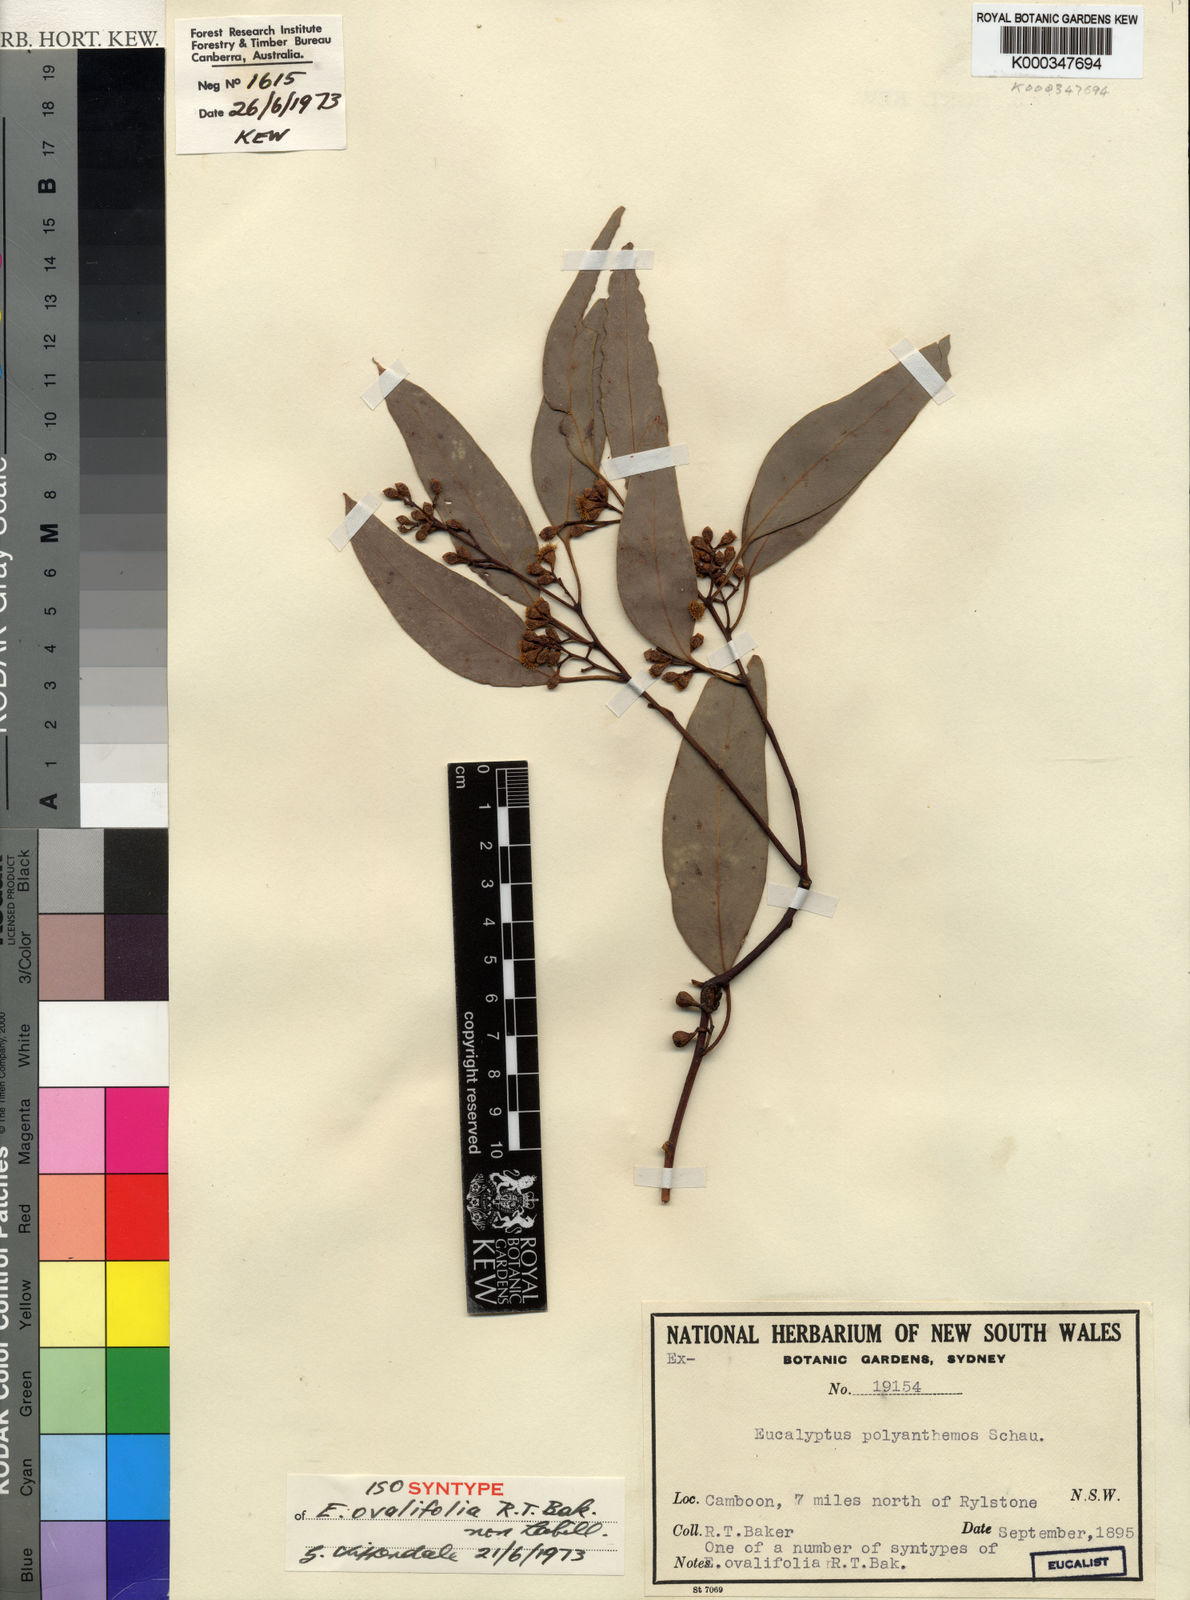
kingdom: Plantae
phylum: Tracheophyta
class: Magnoliopsida
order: Myrtales
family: Myrtaceae
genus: Eucalyptus
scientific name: Eucalyptus polyanthemos
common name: Red-box
